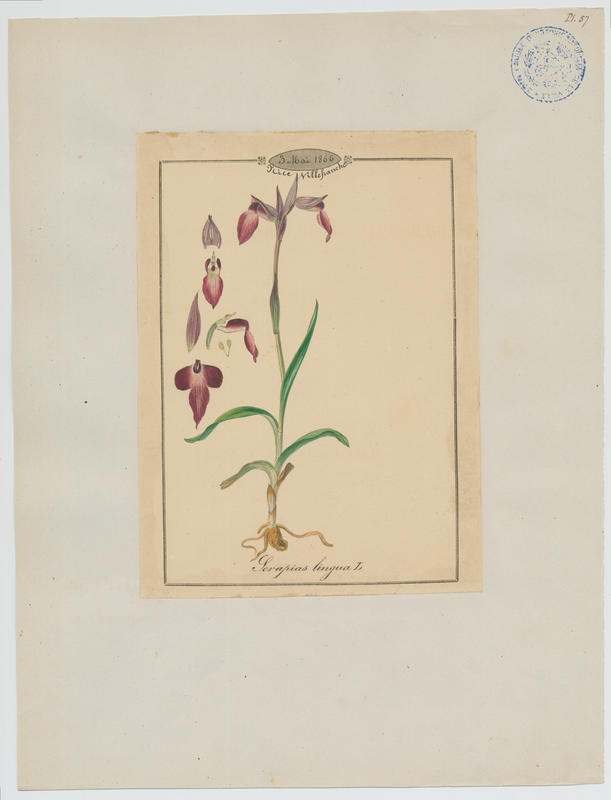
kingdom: Plantae
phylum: Tracheophyta
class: Liliopsida
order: Asparagales
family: Orchidaceae
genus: Serapias
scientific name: Serapias lingua
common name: Tongue-orchid
